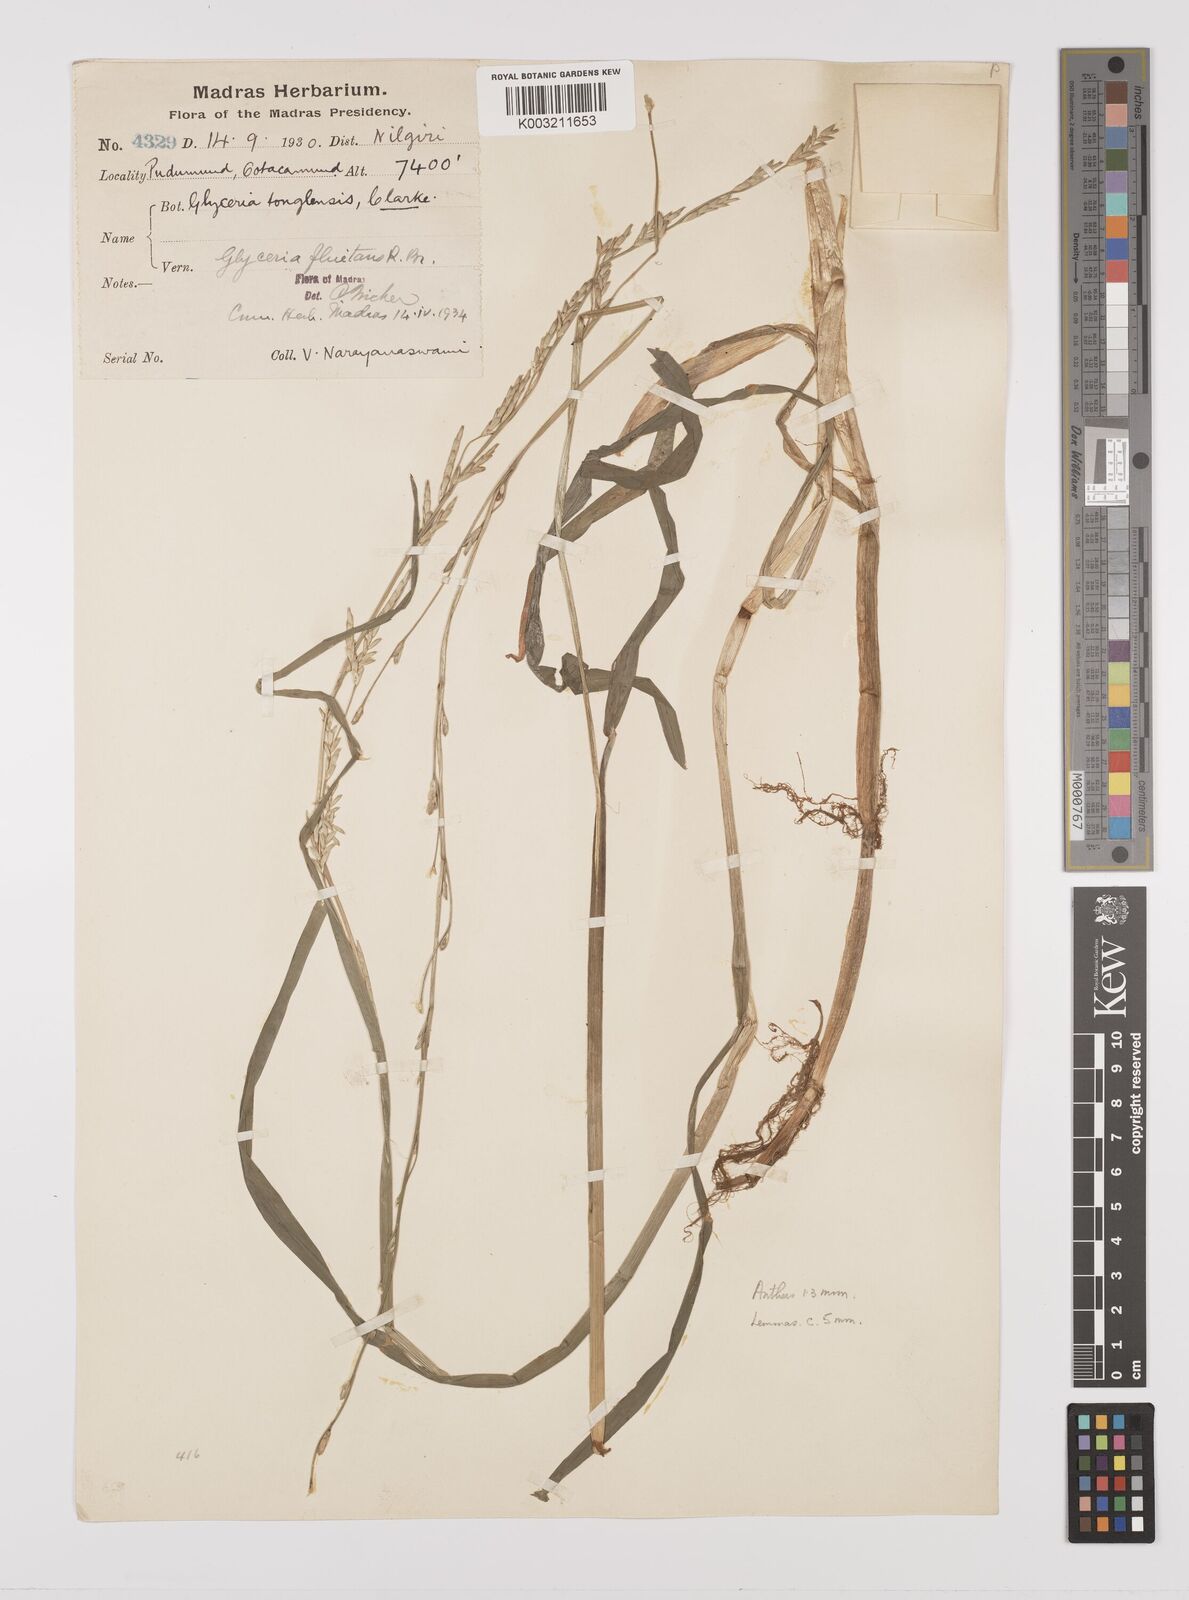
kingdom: Plantae
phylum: Tracheophyta
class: Liliopsida
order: Poales
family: Poaceae
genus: Glyceria
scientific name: Glyceria
